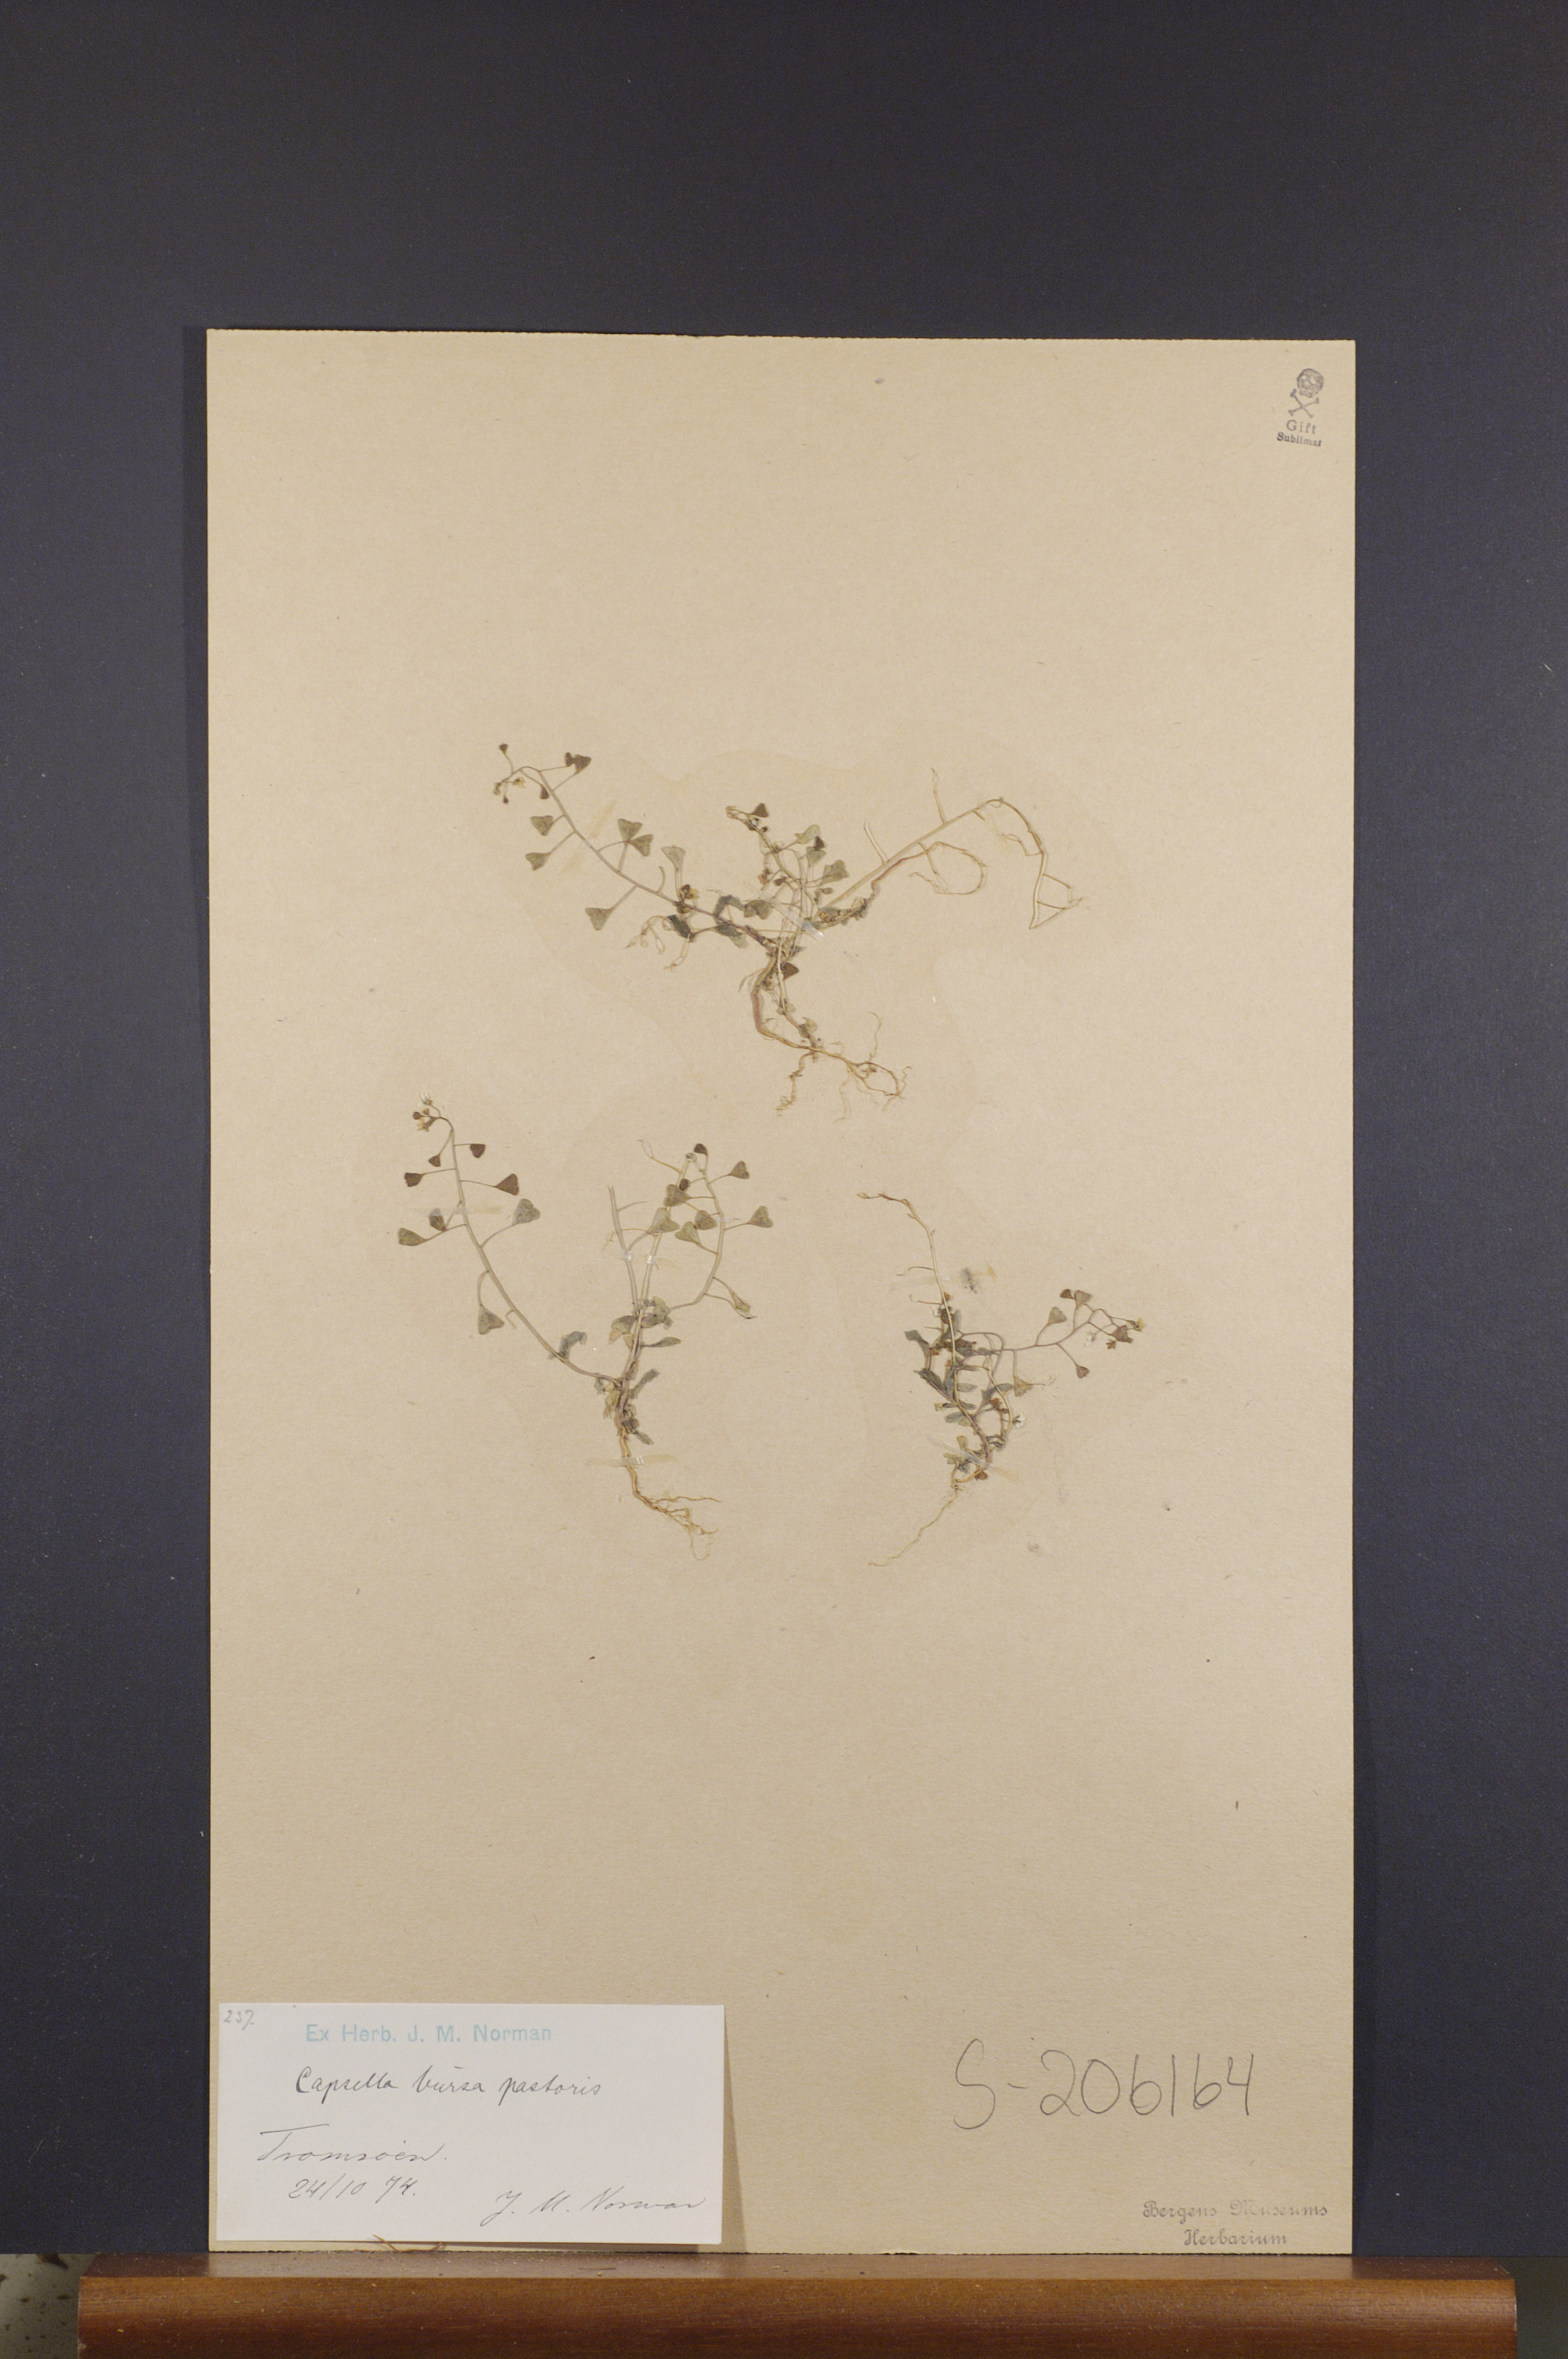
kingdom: Plantae
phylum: Tracheophyta
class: Magnoliopsida
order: Brassicales
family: Brassicaceae
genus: Capsella
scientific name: Capsella bursa-pastoris
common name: Shepherd's purse
